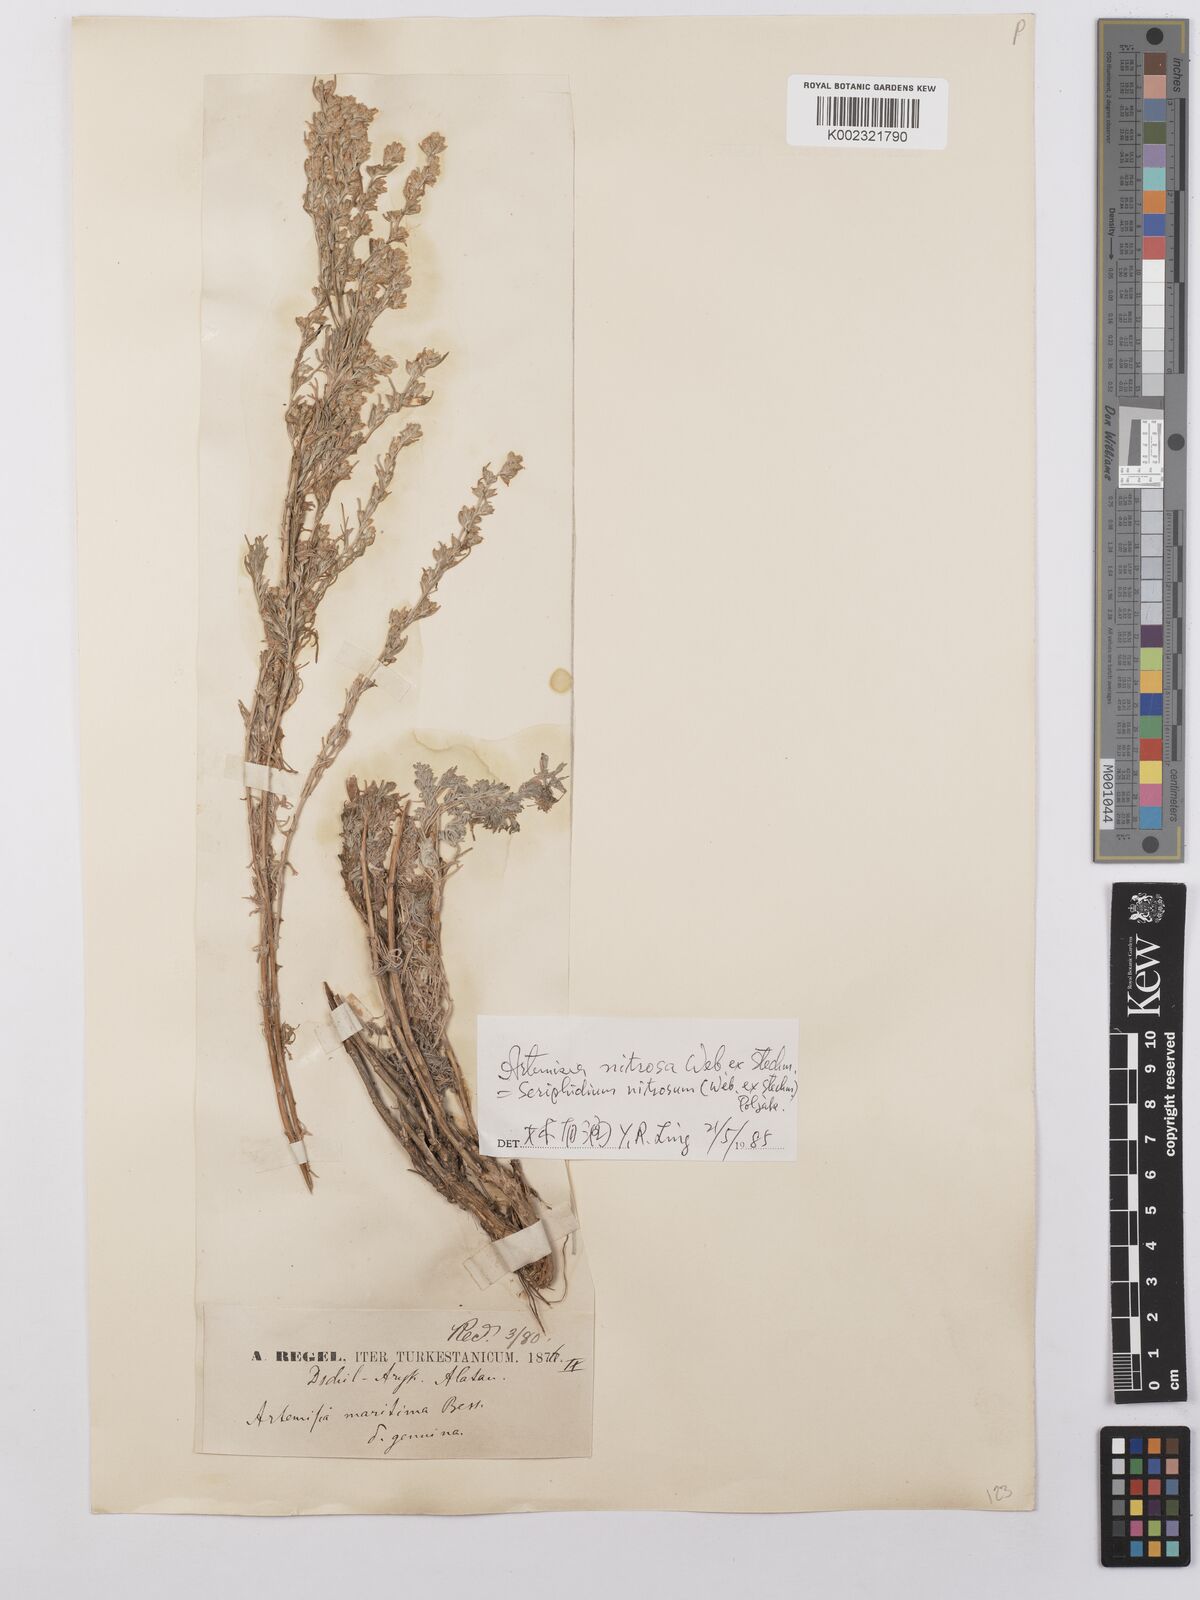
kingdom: Plantae
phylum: Tracheophyta
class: Magnoliopsida
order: Asterales
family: Asteraceae
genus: Artemisia
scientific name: Artemisia nitrosa
